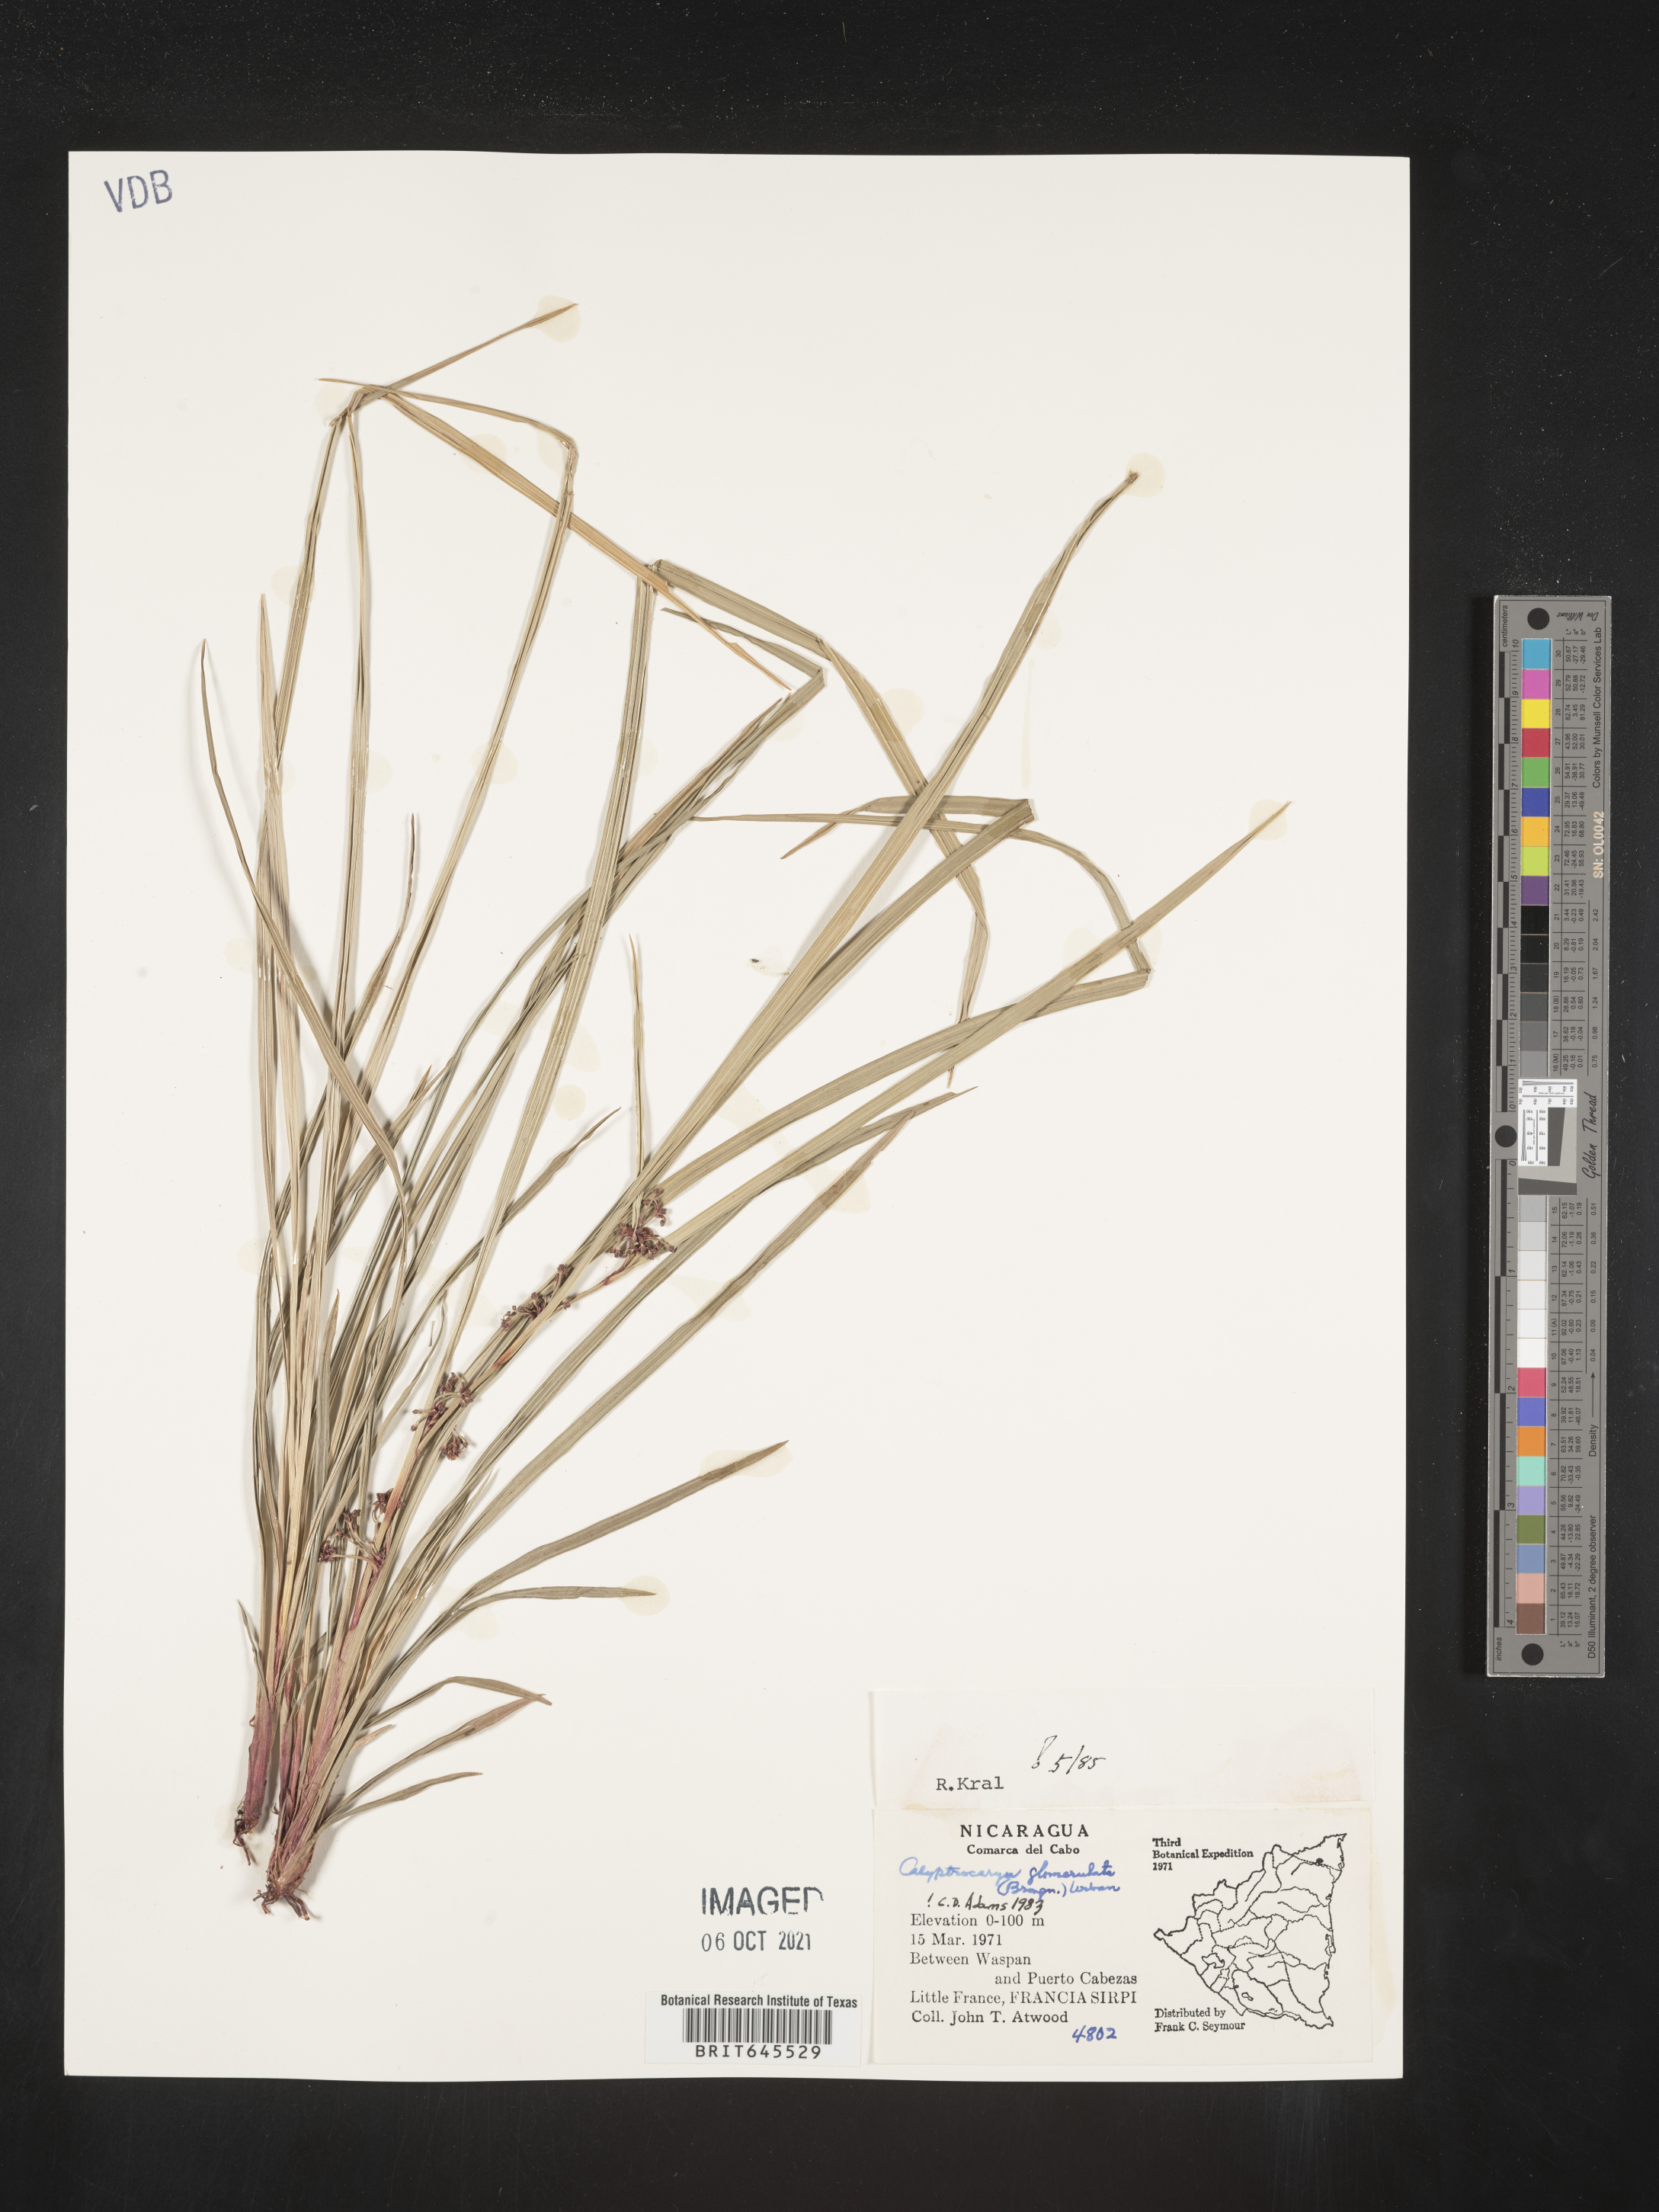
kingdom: Plantae
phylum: Tracheophyta
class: Liliopsida
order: Poales
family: Cyperaceae
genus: Calyptrocarya
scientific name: Calyptrocarya glomerulata
